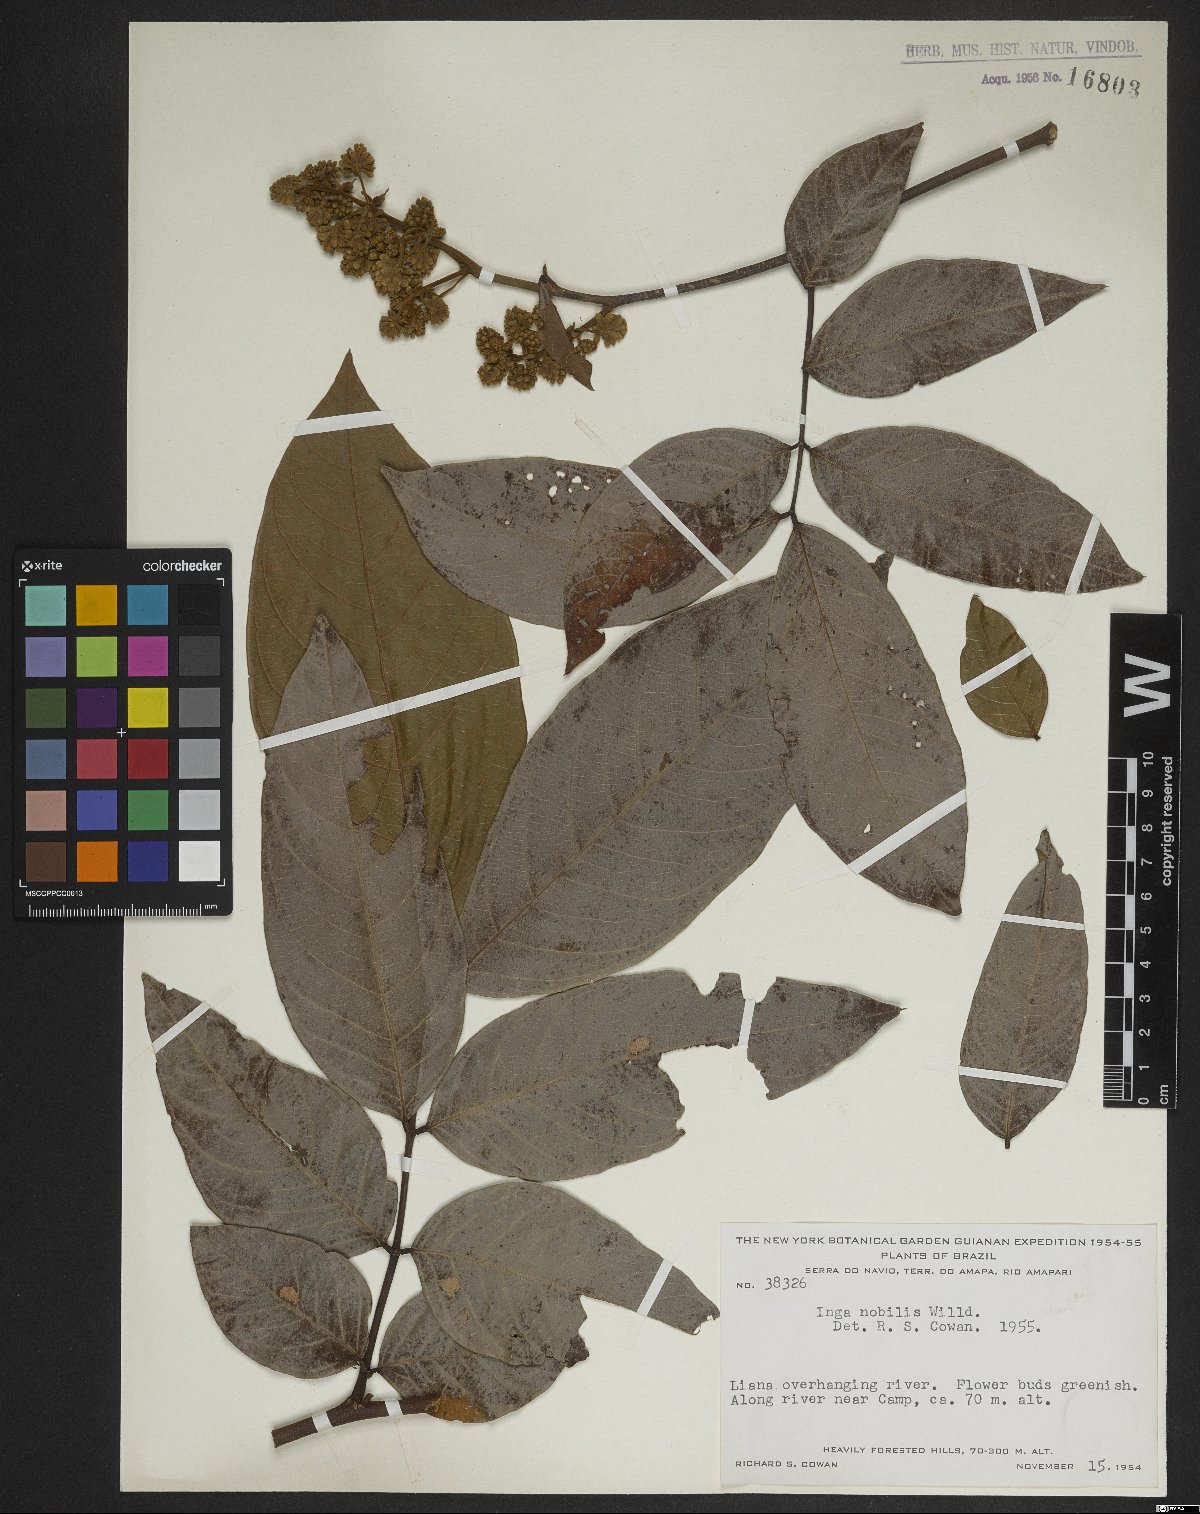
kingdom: Plantae
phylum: Tracheophyta
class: Magnoliopsida
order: Fabales
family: Fabaceae
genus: Inga
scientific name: Inga nobilis
